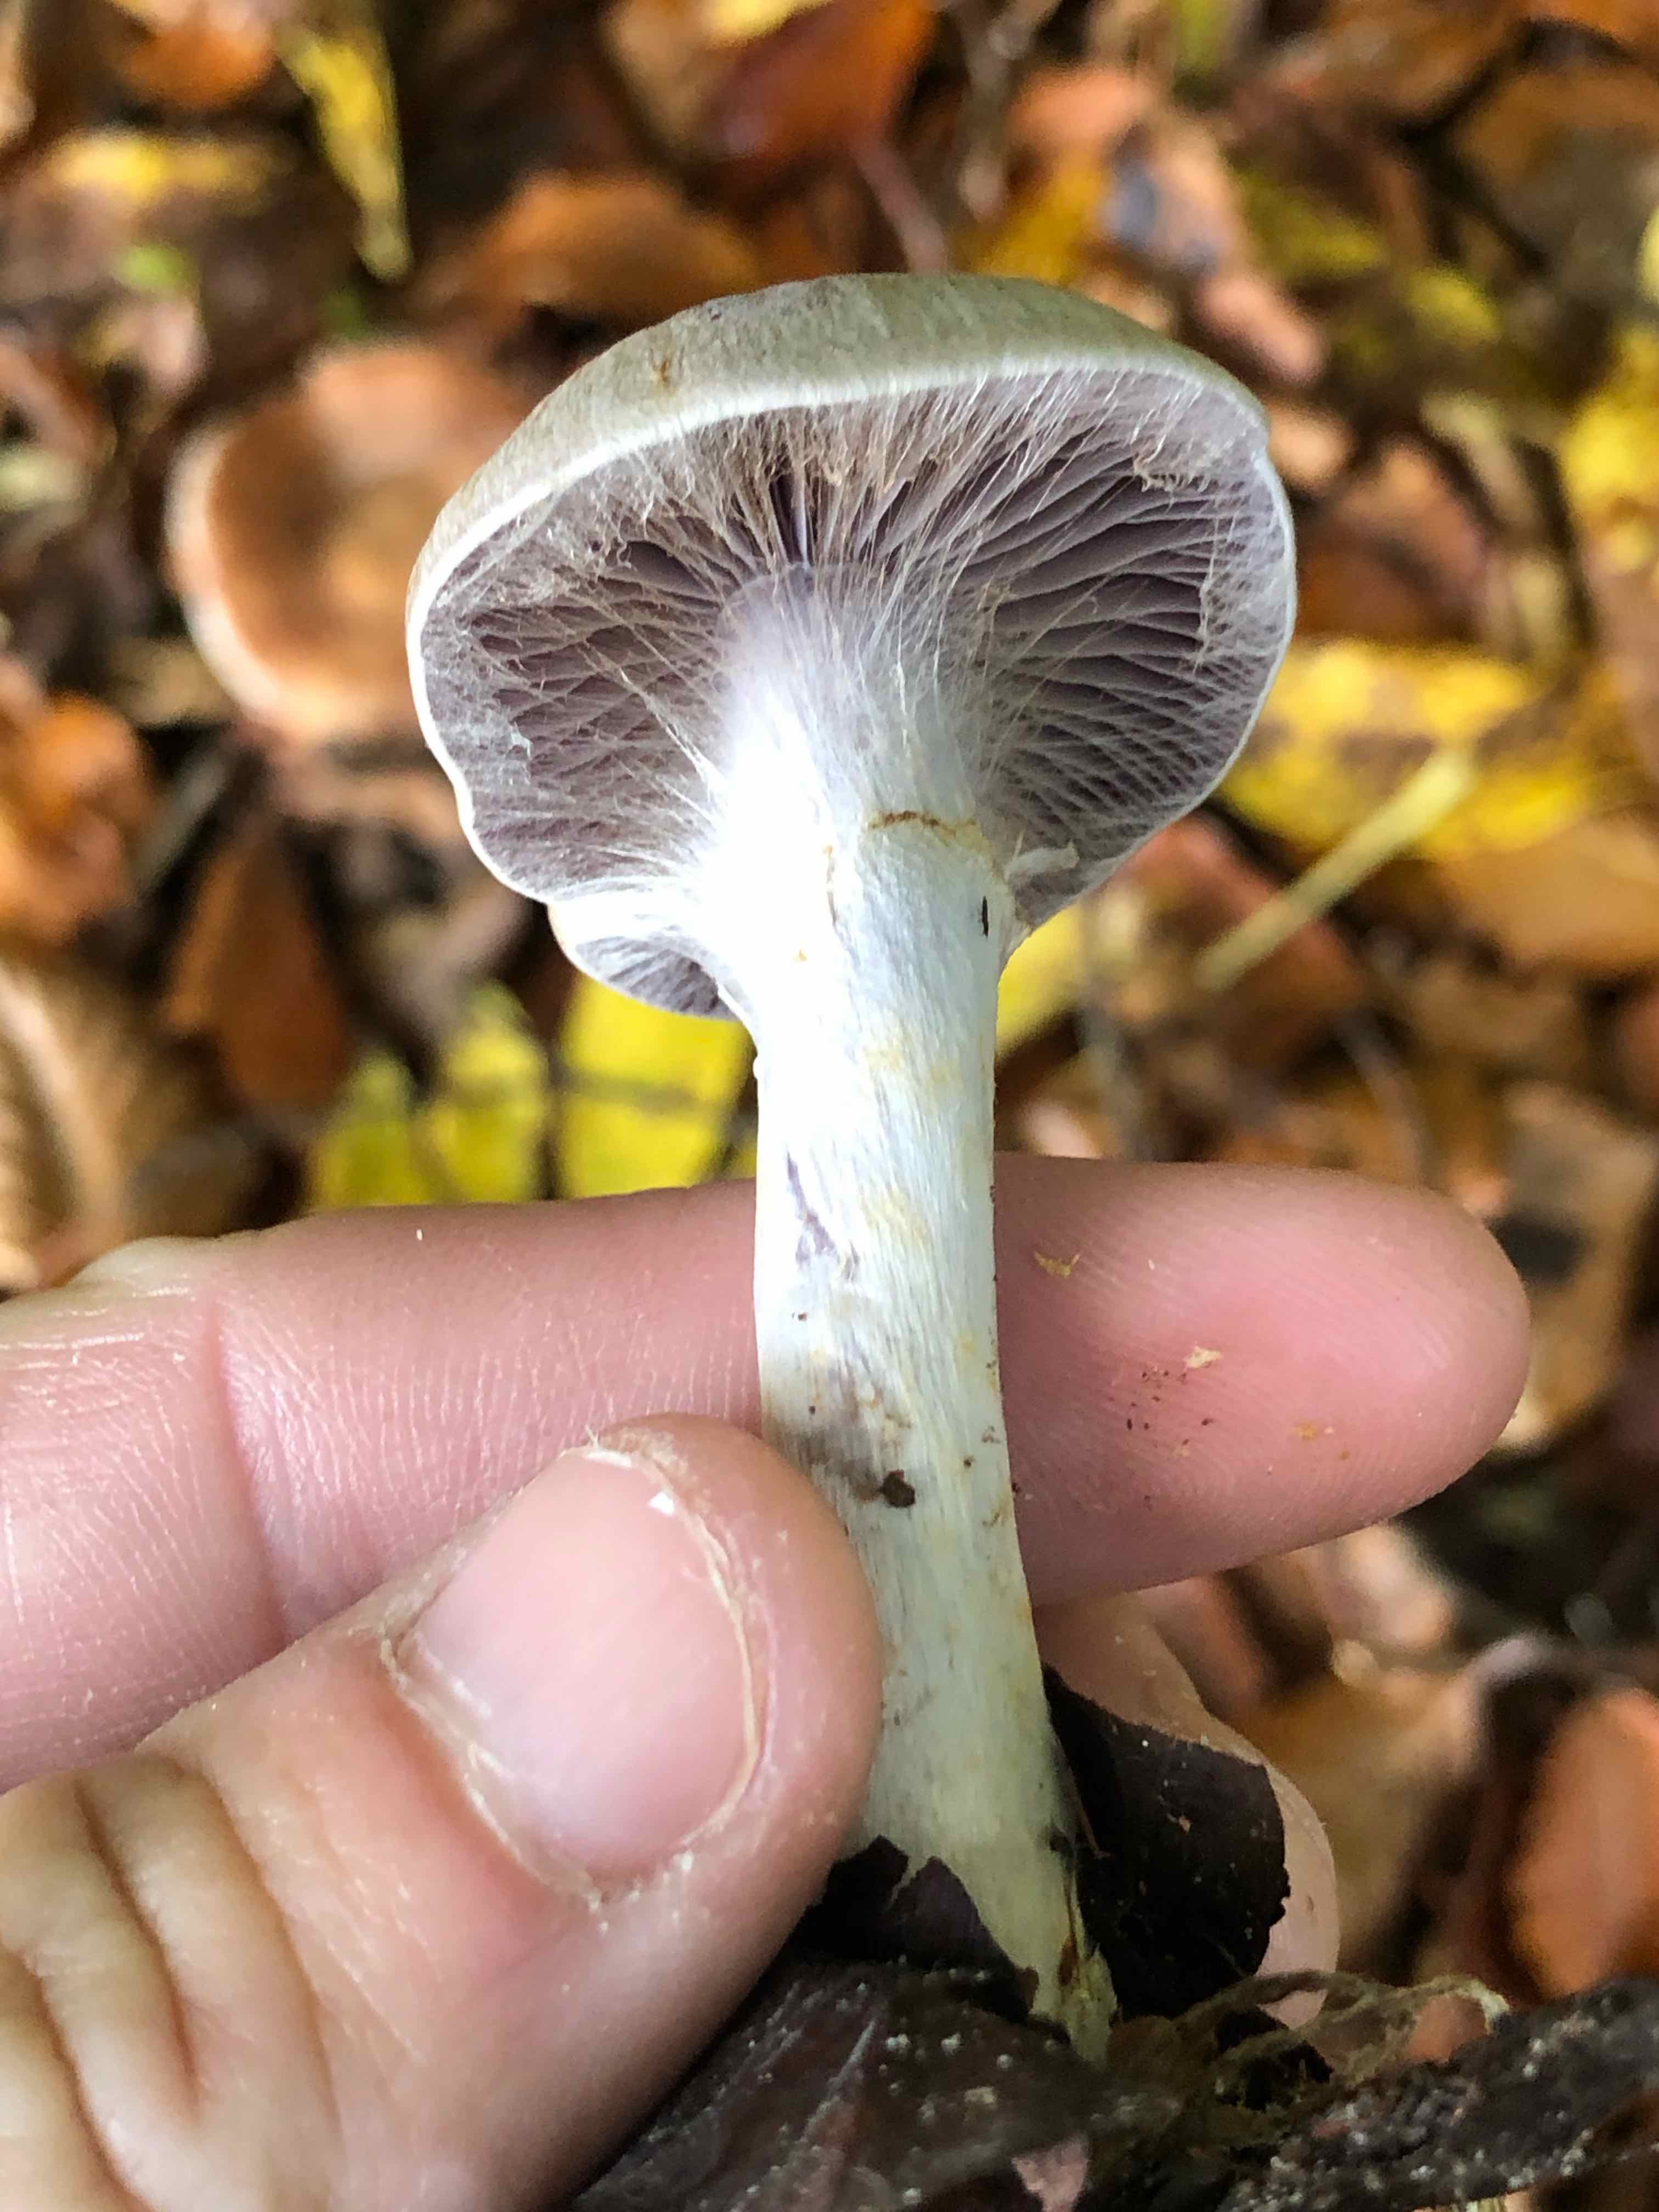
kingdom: Fungi
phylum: Basidiomycota
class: Agaricomycetes
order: Agaricales
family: Cortinariaceae
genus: Cortinarius
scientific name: Cortinarius
